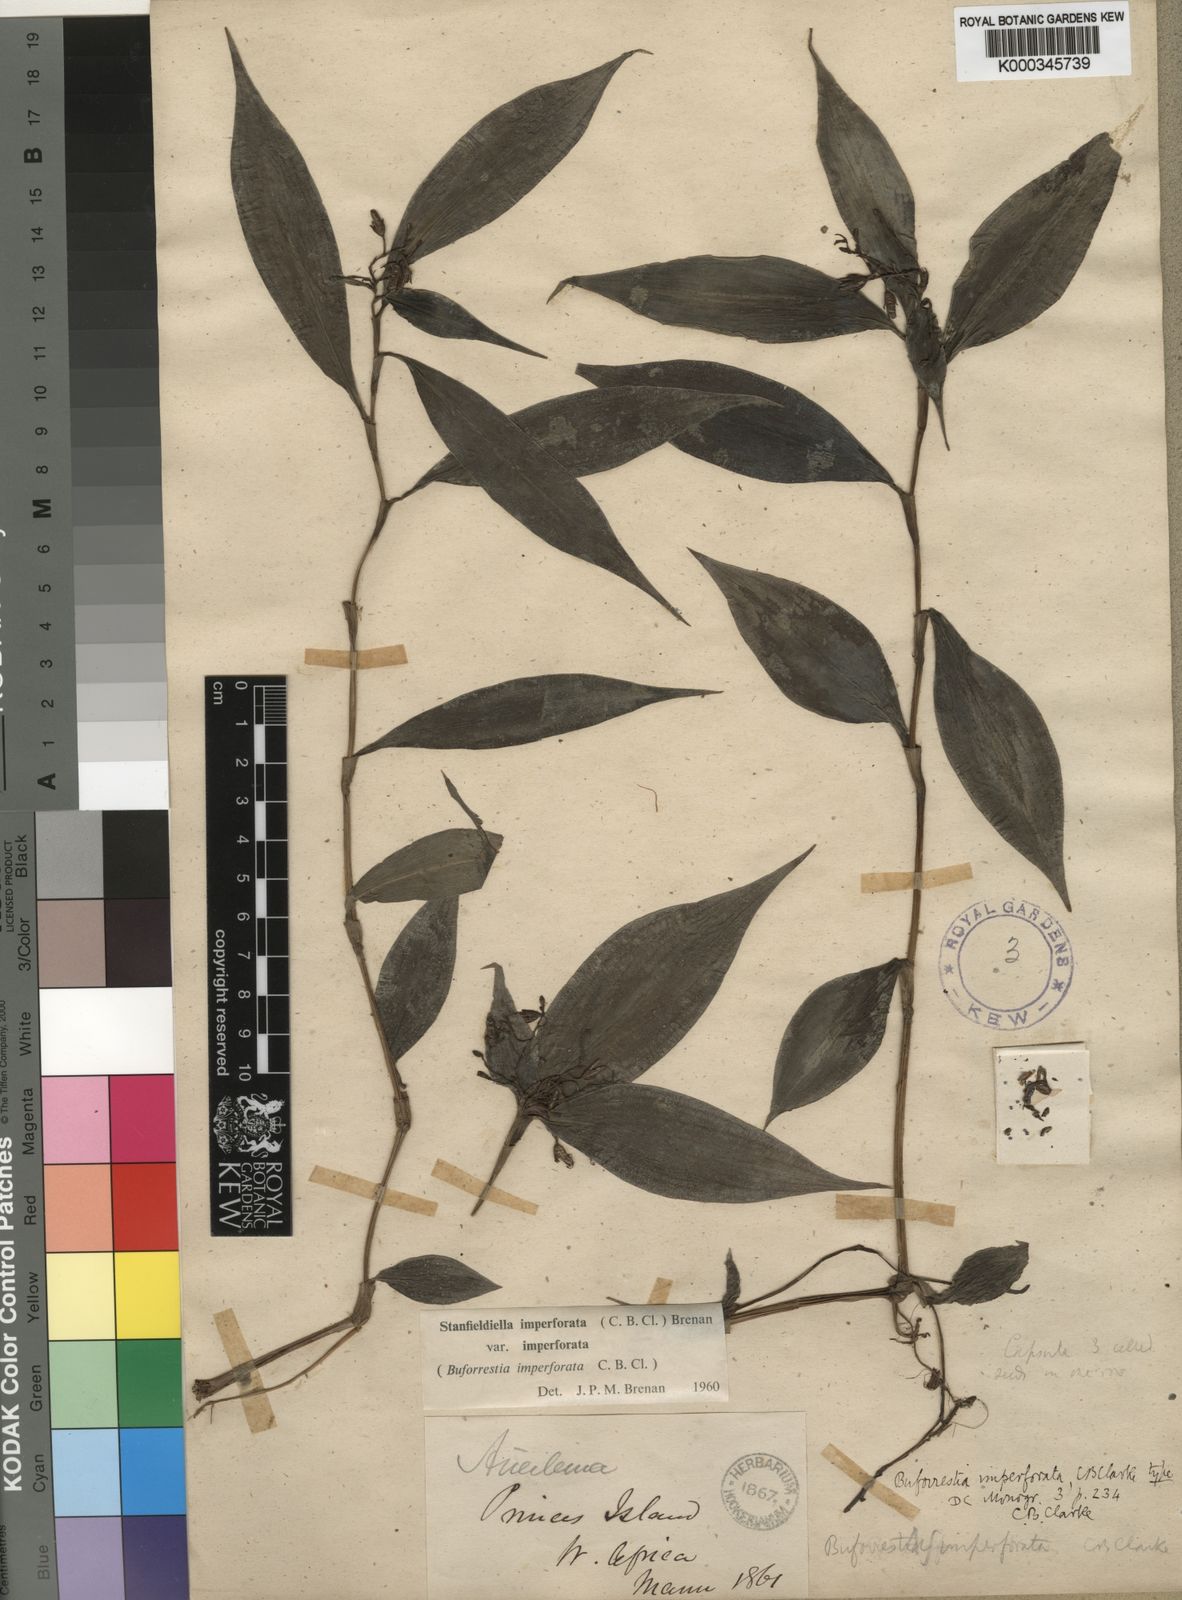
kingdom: Plantae
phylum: Tracheophyta
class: Liliopsida
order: Commelinales
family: Commelinaceae
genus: Stanfieldiella
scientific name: Stanfieldiella imperforata
